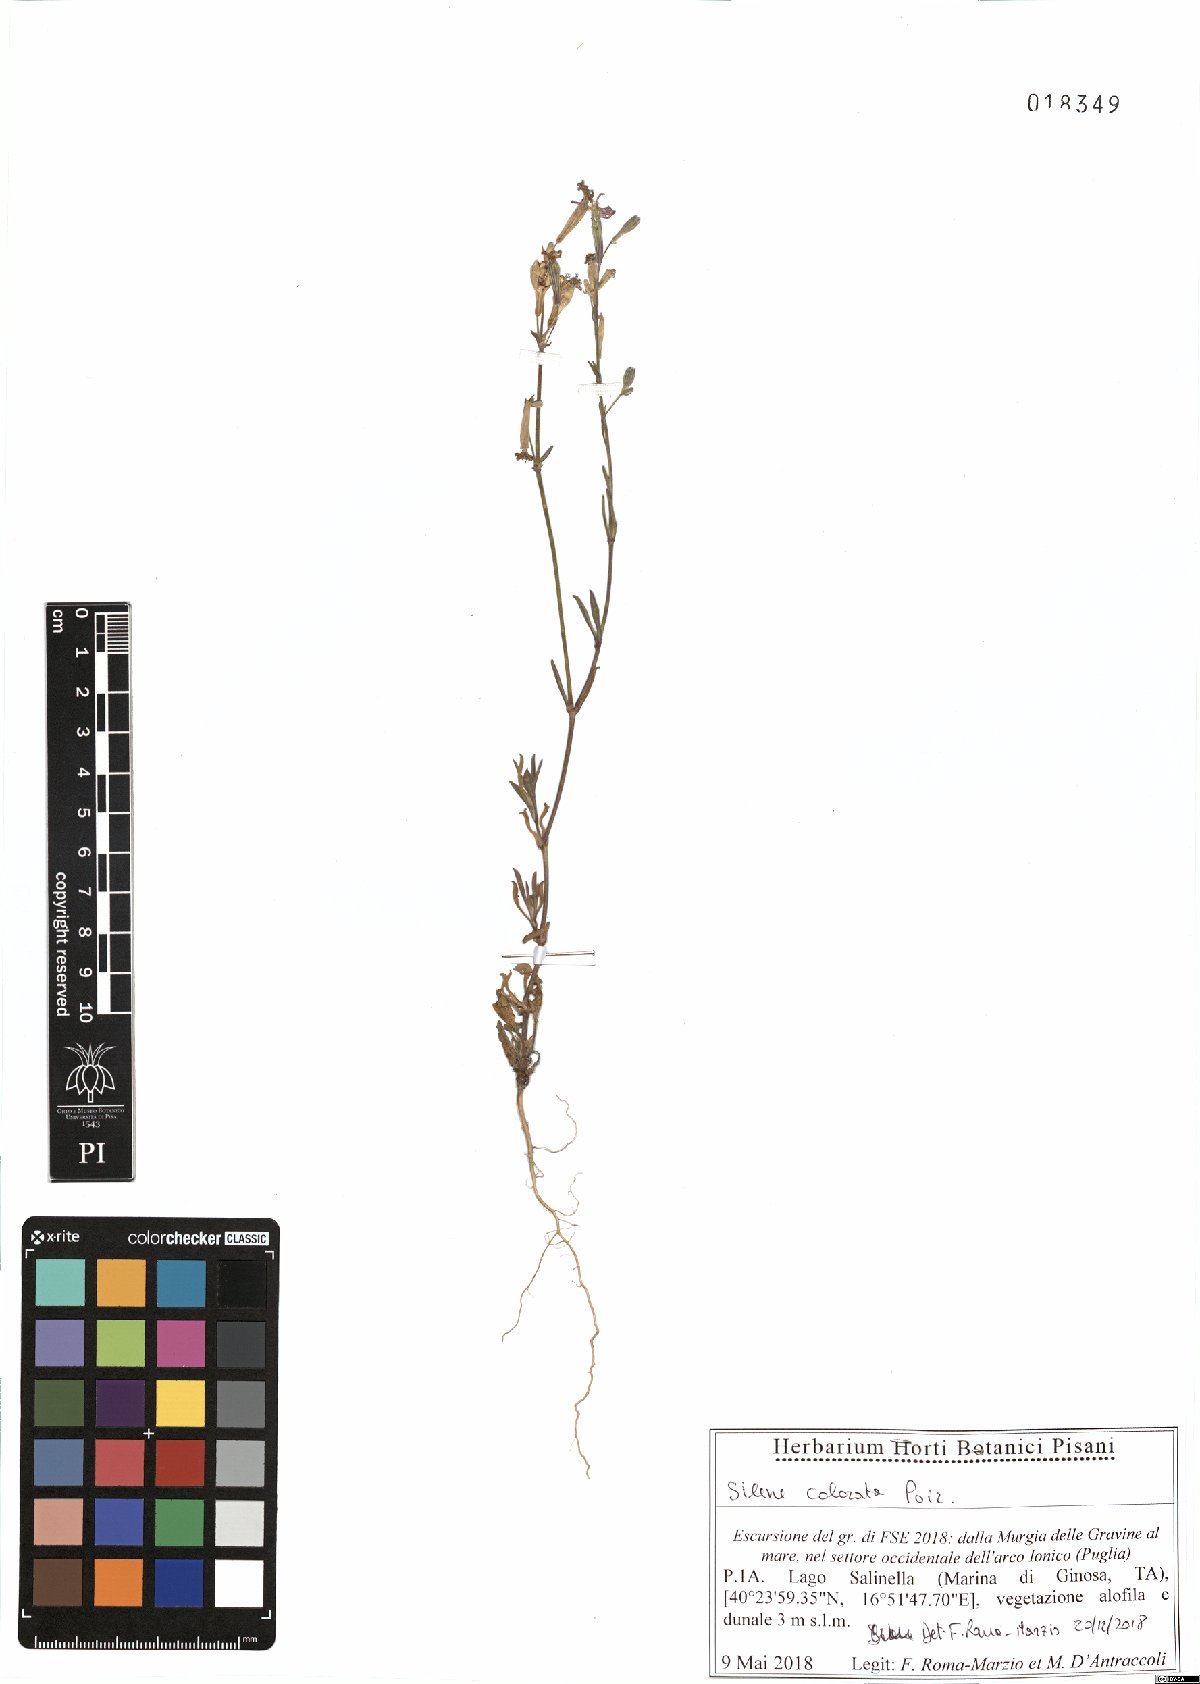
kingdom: Plantae
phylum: Tracheophyta
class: Magnoliopsida
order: Caryophyllales
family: Caryophyllaceae
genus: Silene
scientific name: Silene colorata
